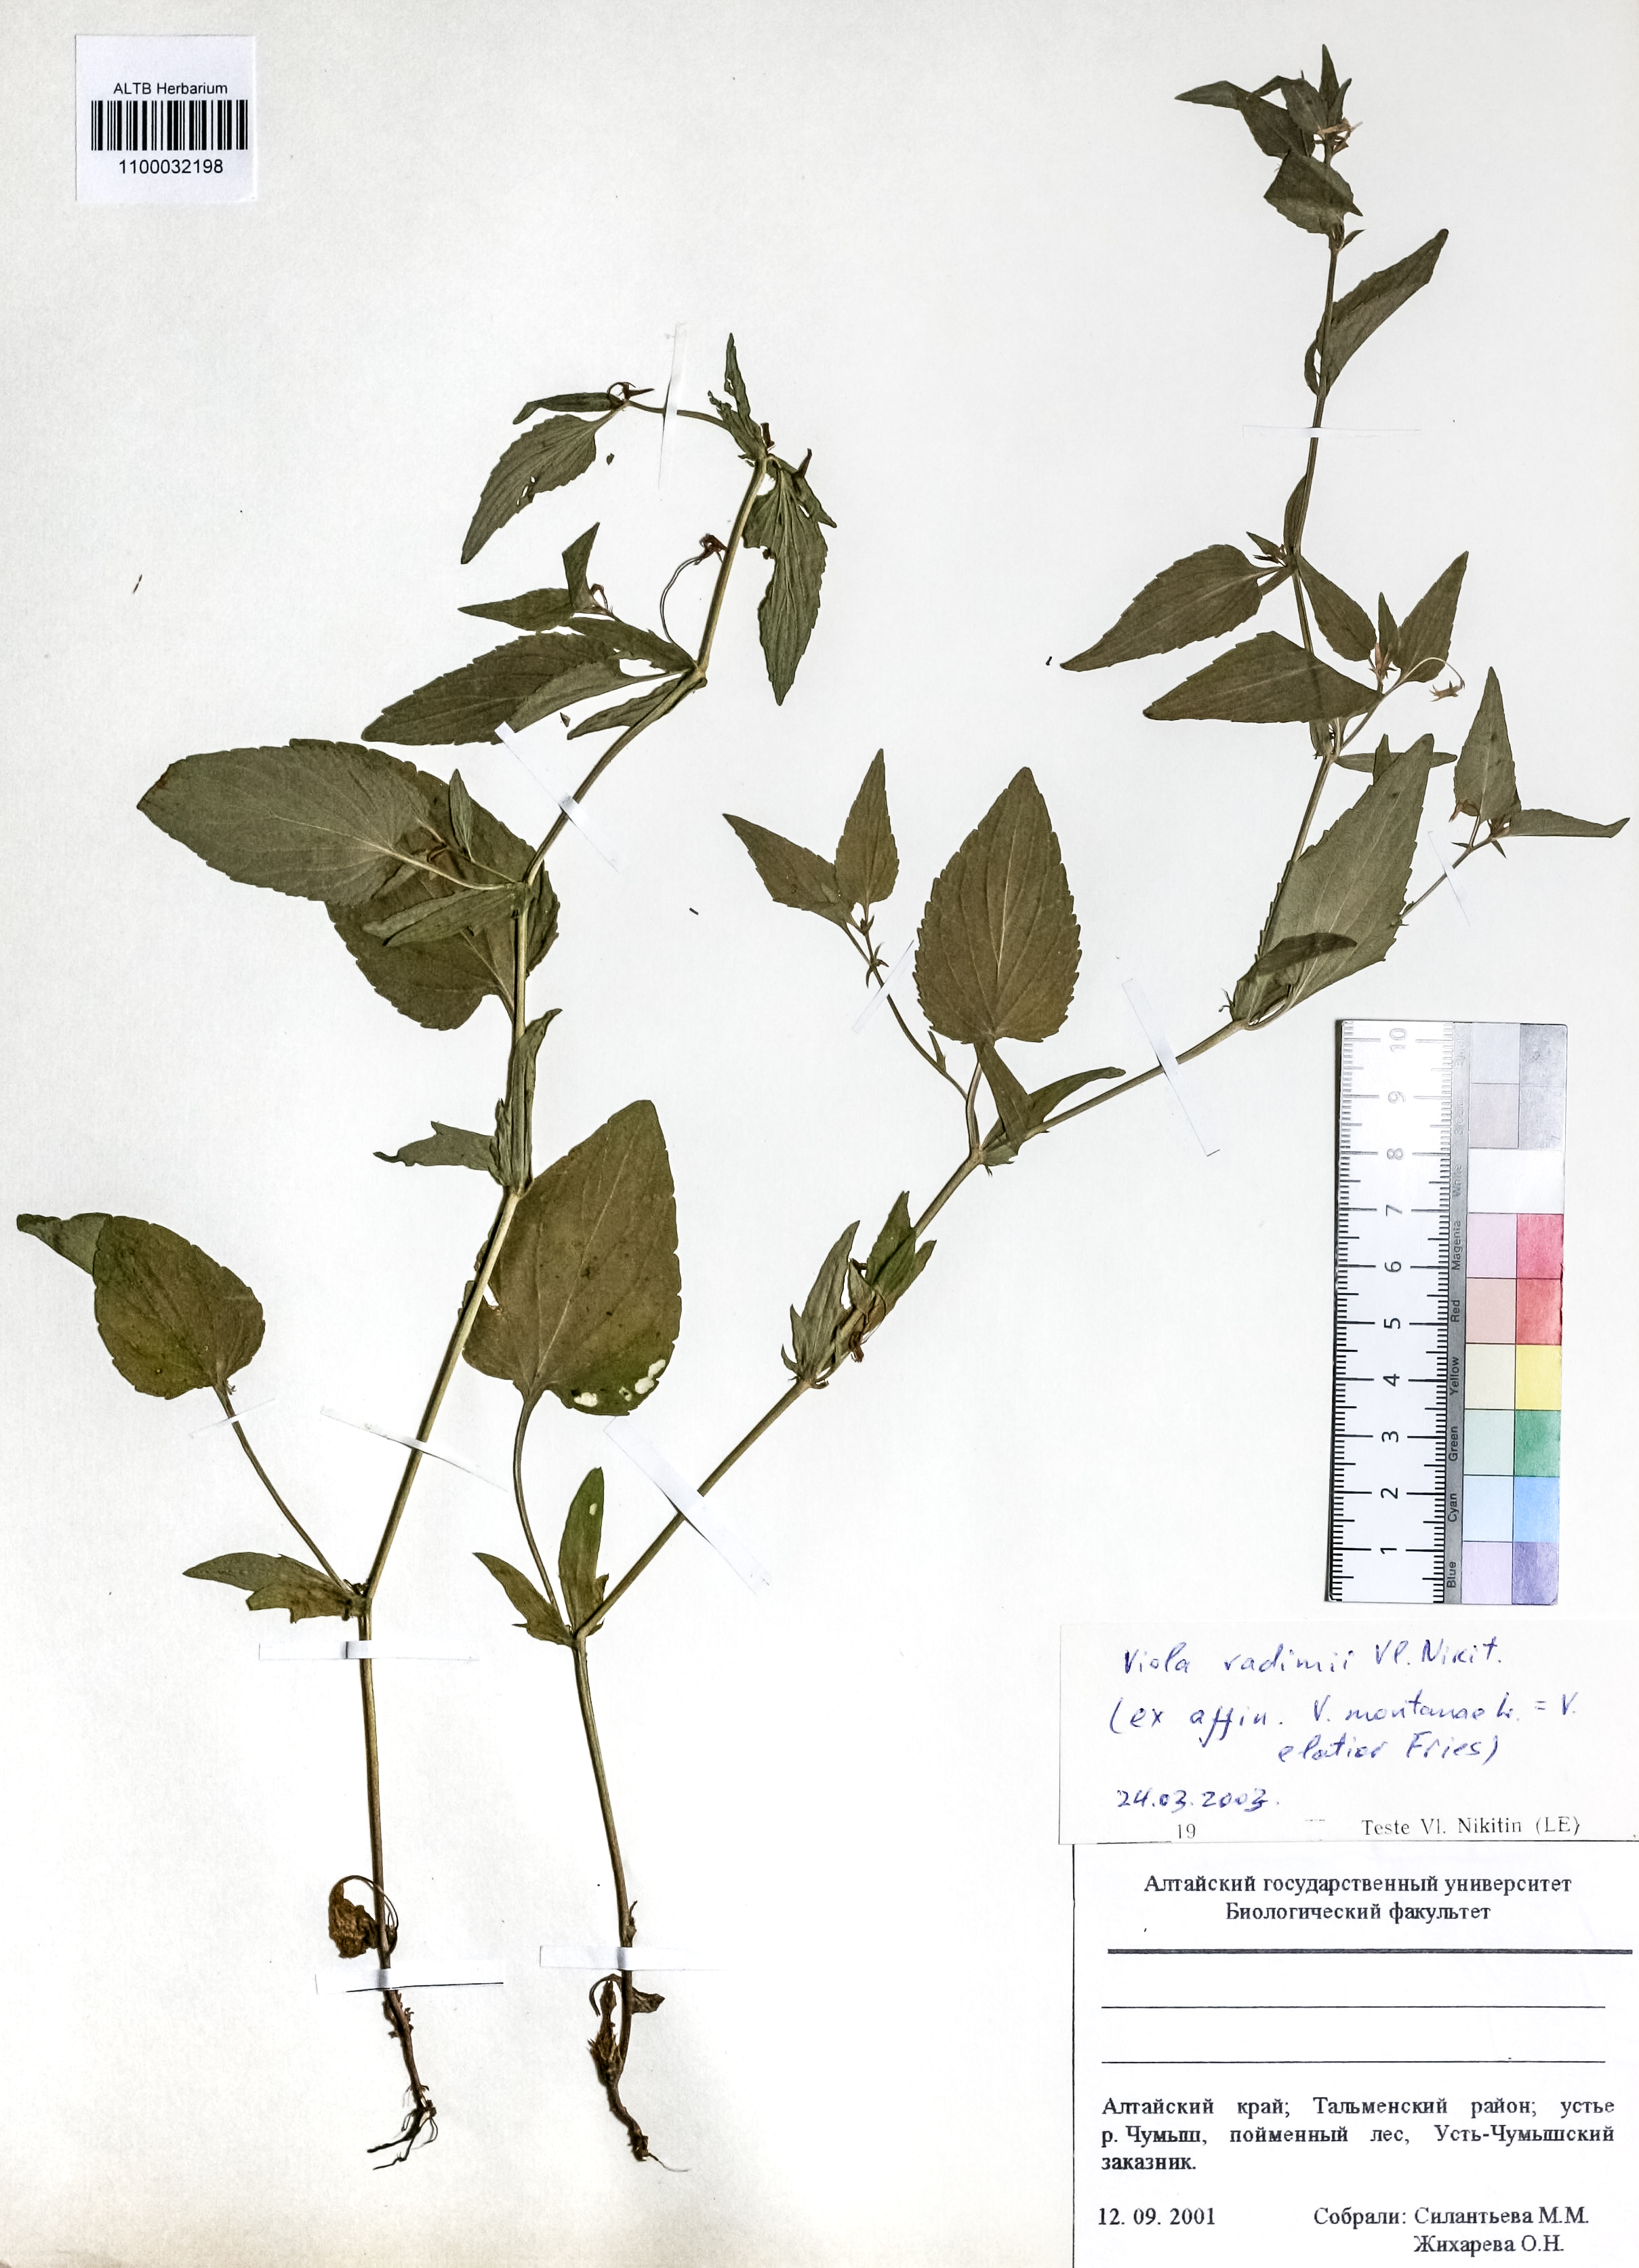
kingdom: Plantae
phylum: Tracheophyta
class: Magnoliopsida
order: Malpighiales
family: Violaceae
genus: Viola
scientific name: Viola elatior
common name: Tall violet
